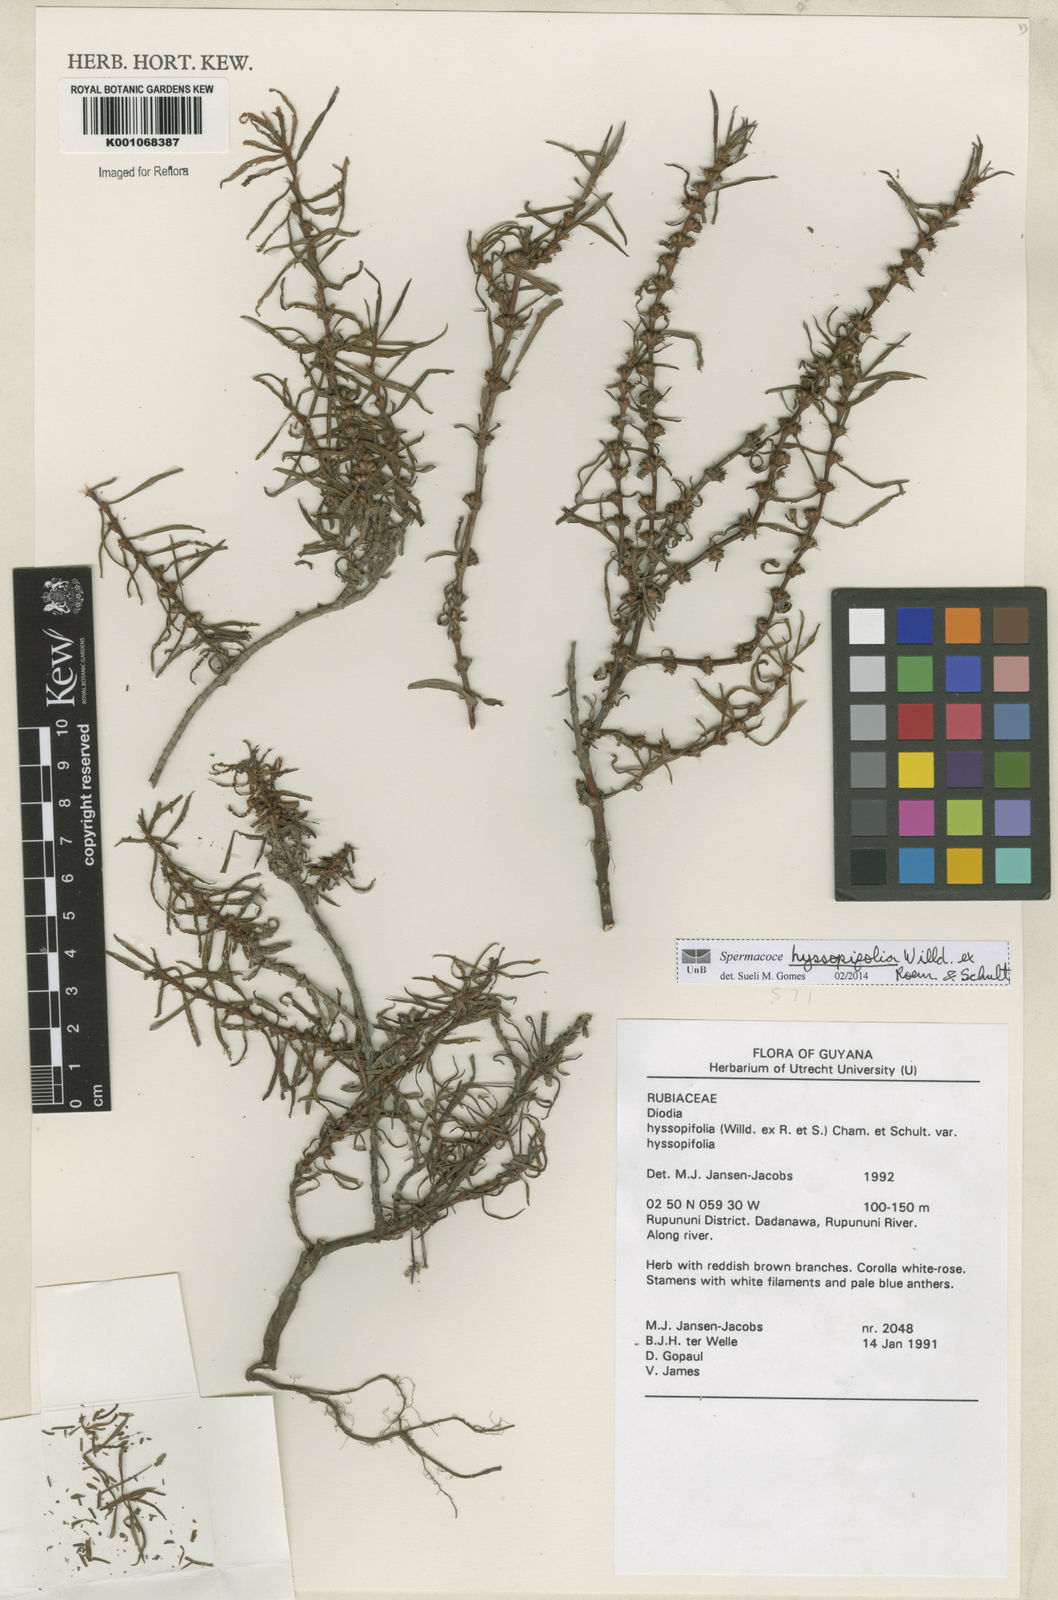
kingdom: Plantae
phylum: Tracheophyta
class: Magnoliopsida
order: Gentianales
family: Rubiaceae
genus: Spermacoce
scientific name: Spermacoce
